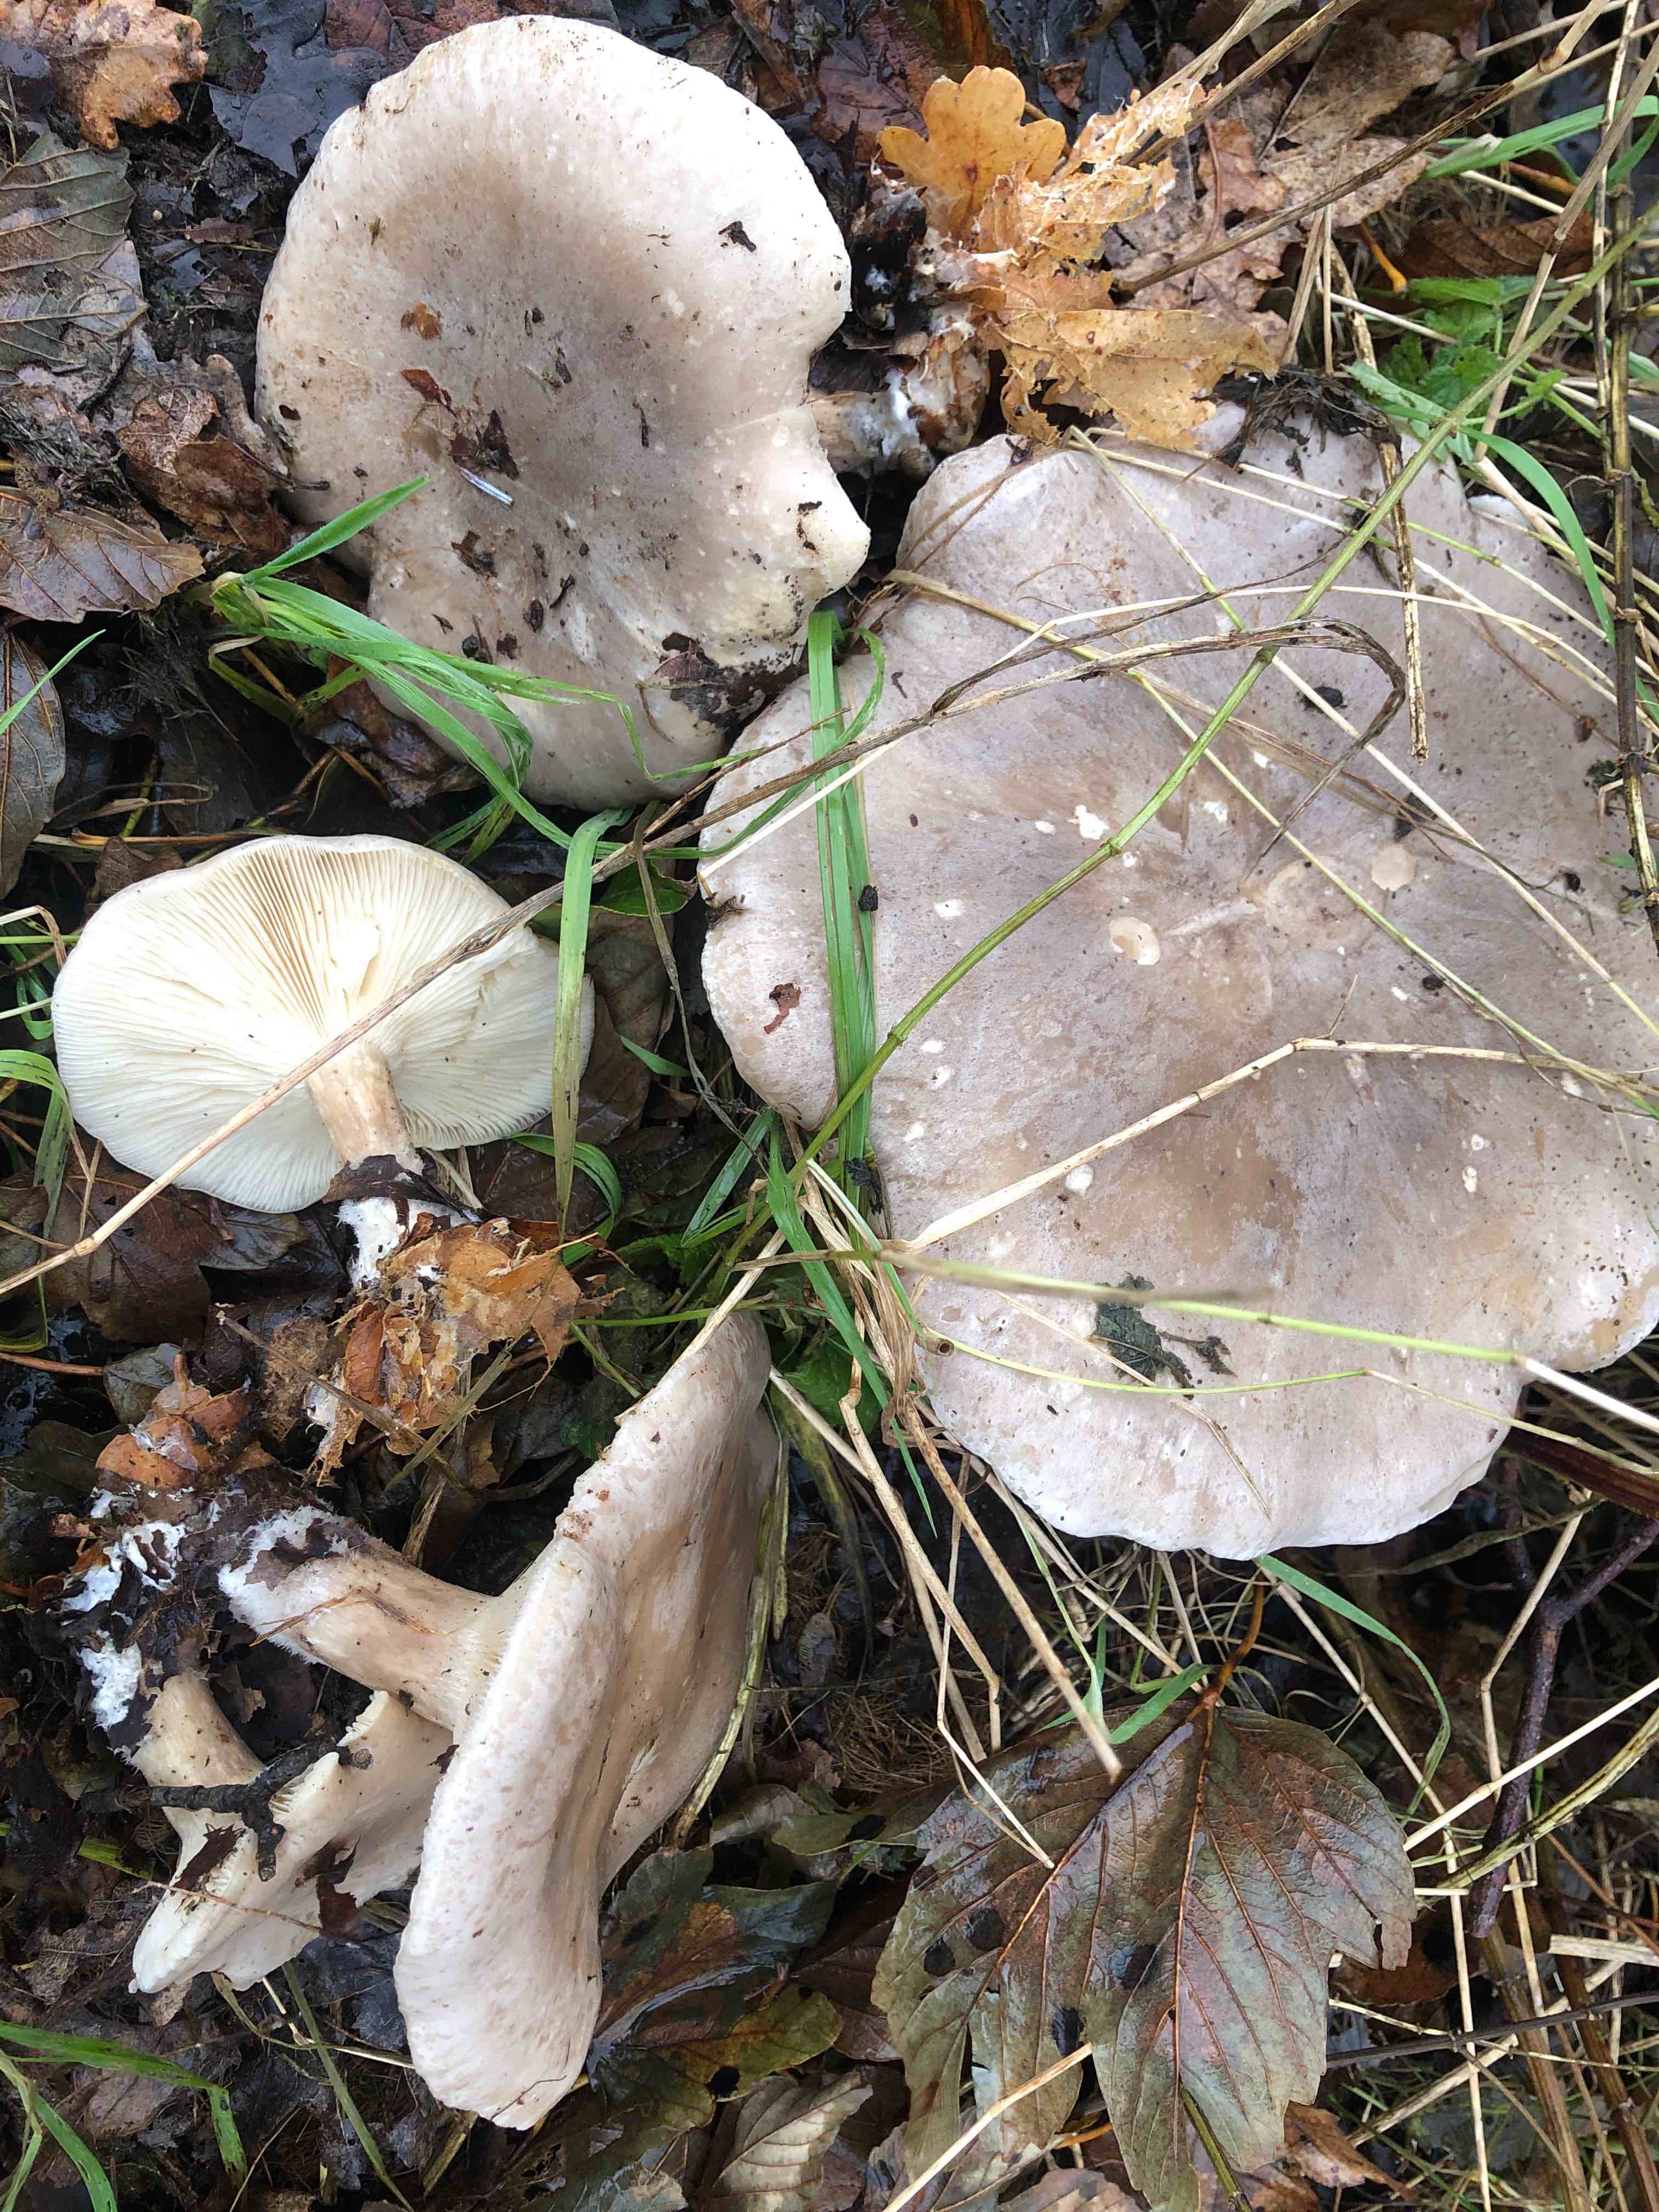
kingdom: Fungi
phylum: Basidiomycota
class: Agaricomycetes
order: Agaricales
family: Tricholomataceae
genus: Clitocybe
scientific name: Clitocybe nebularis
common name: tåge-tragthat
